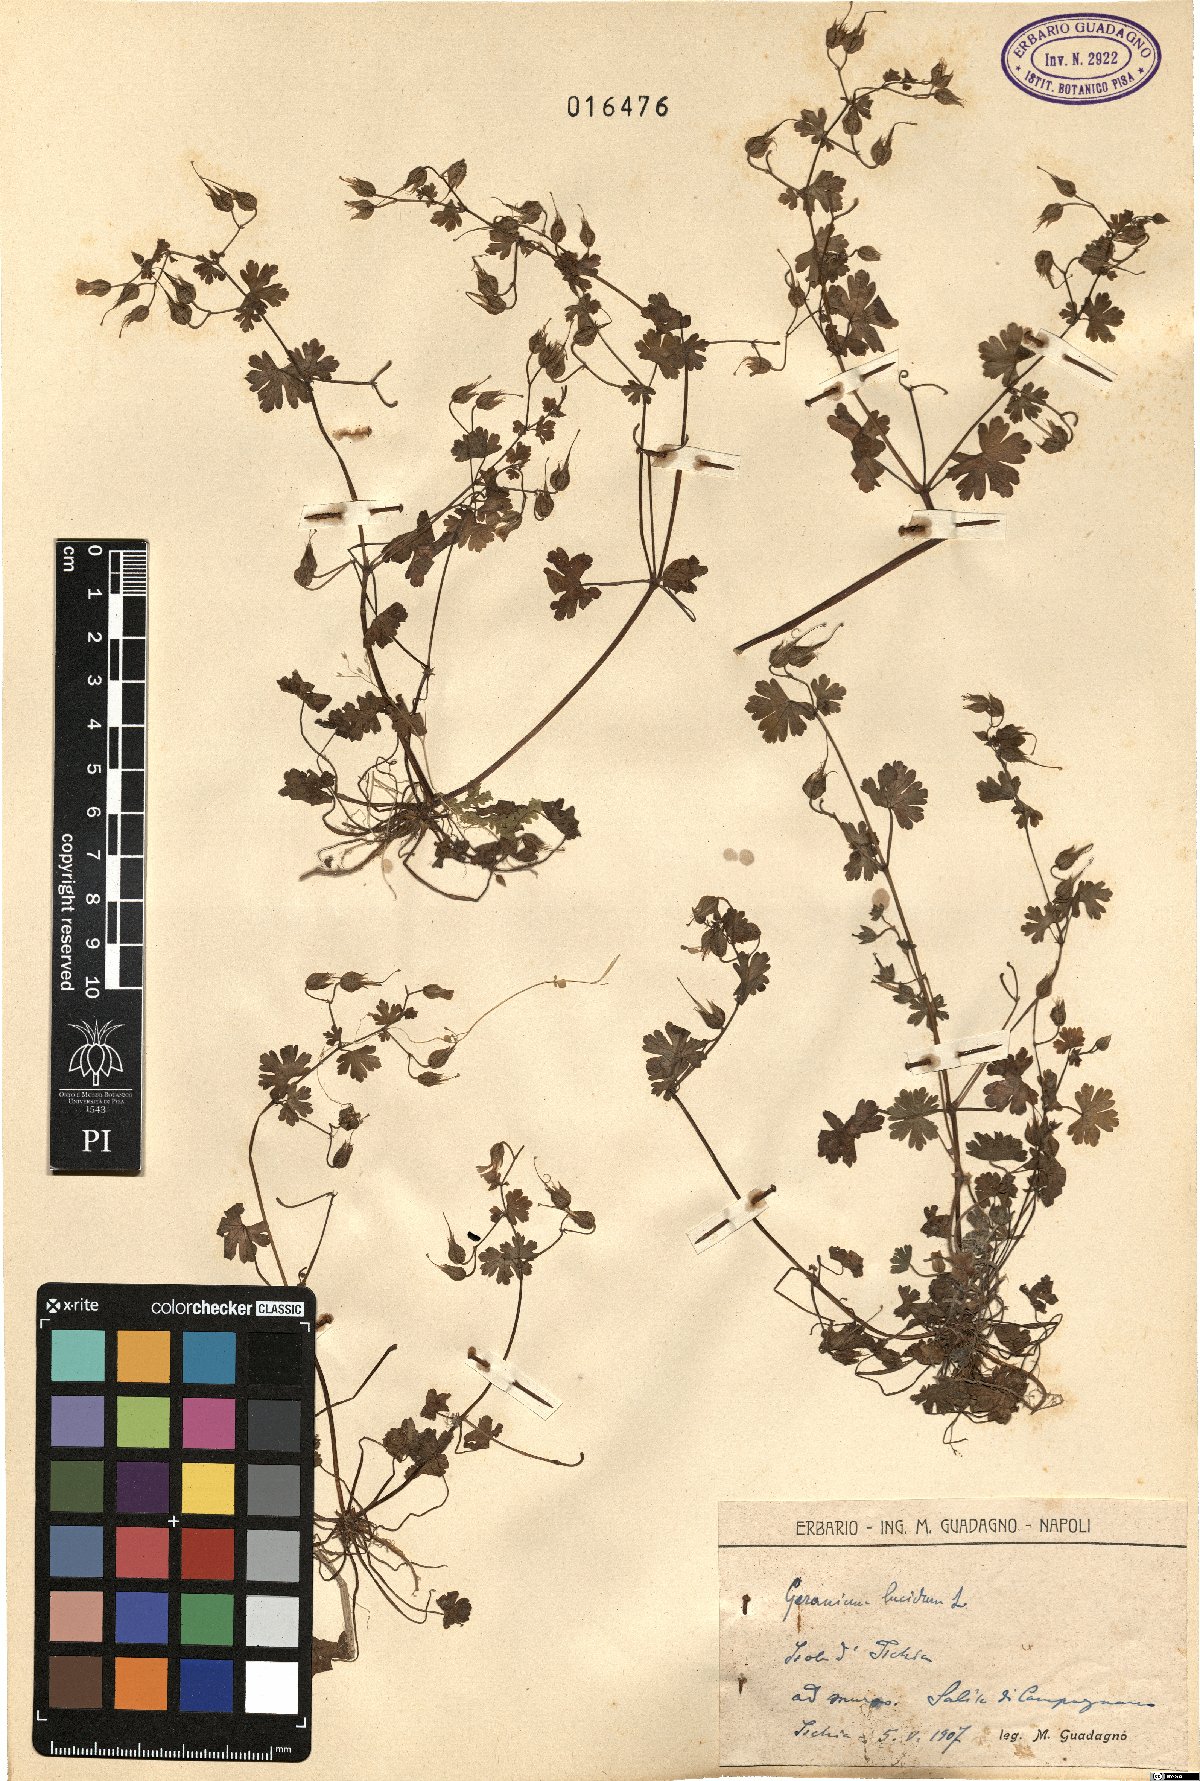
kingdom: Plantae
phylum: Tracheophyta
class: Magnoliopsida
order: Geraniales
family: Geraniaceae
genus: Geranium
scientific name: Geranium lucidum
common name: Shining crane's-bill
